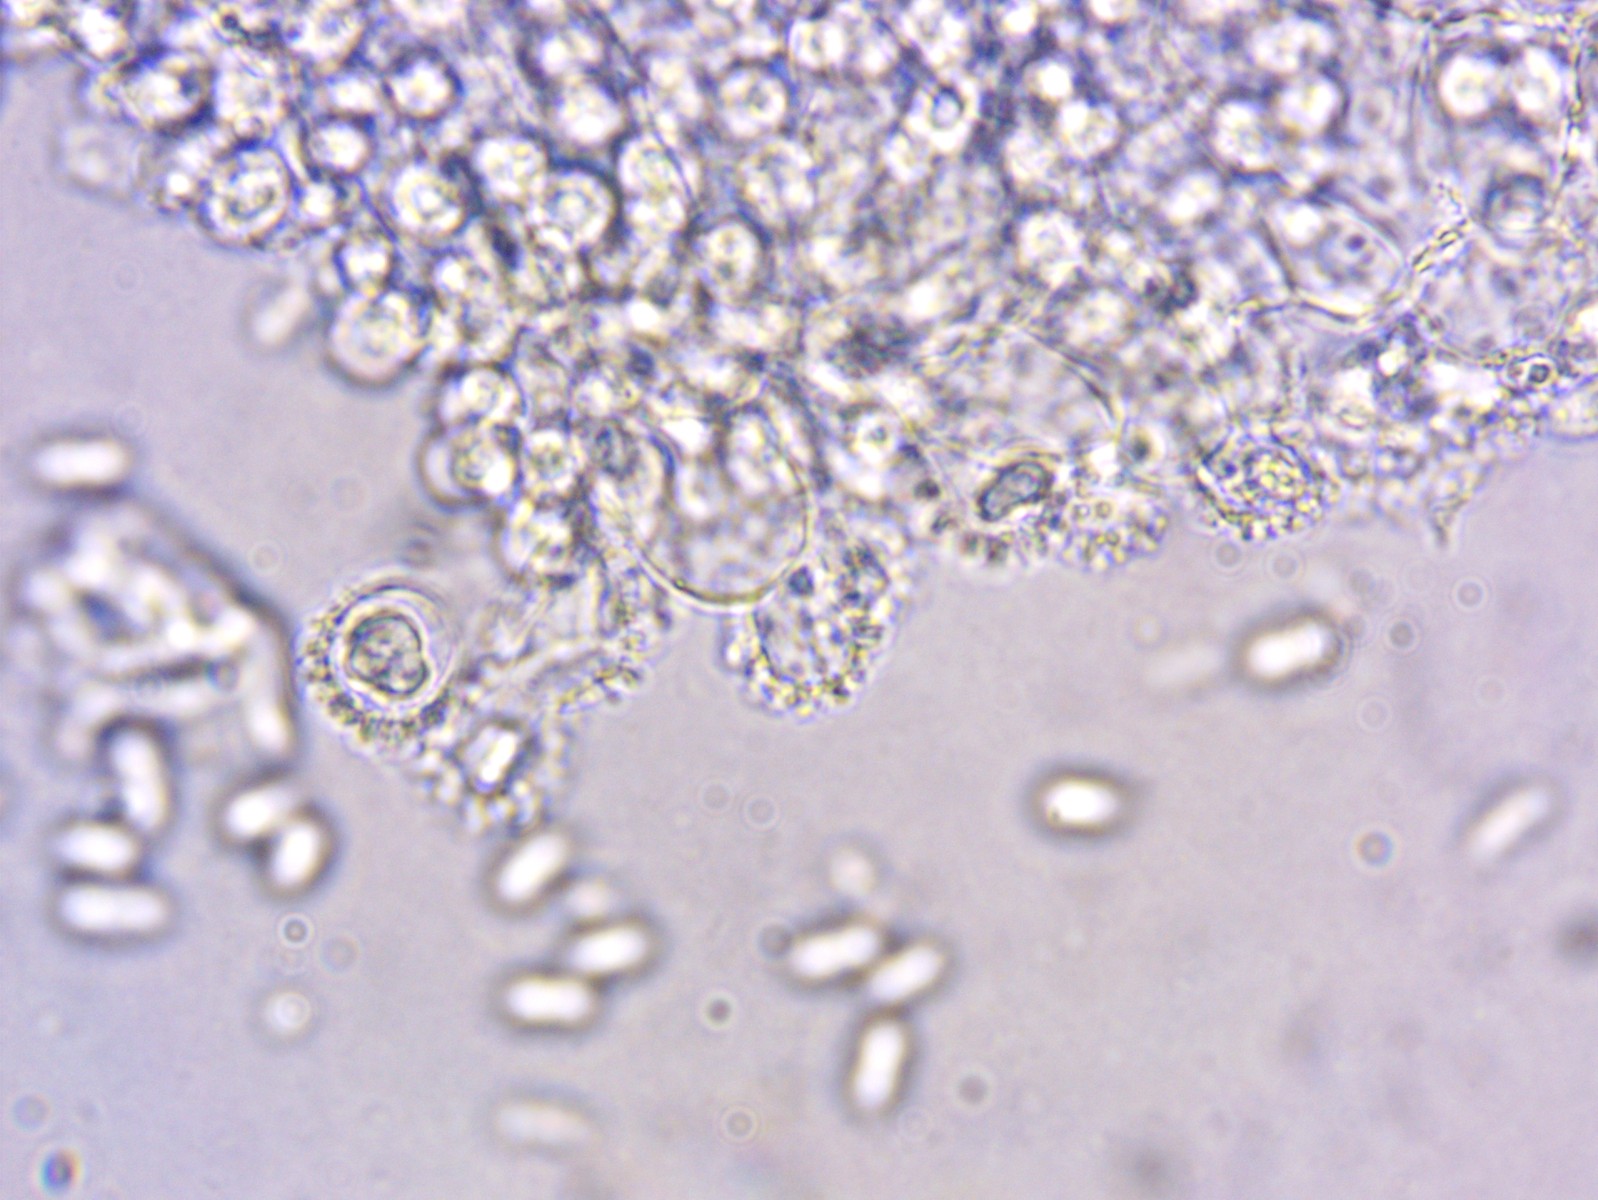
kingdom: Fungi
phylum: Basidiomycota
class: Agaricomycetes
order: Agaricales
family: Mycenaceae
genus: Mycena
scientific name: Mycena polyadelpha
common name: egeblads-huesvamp
